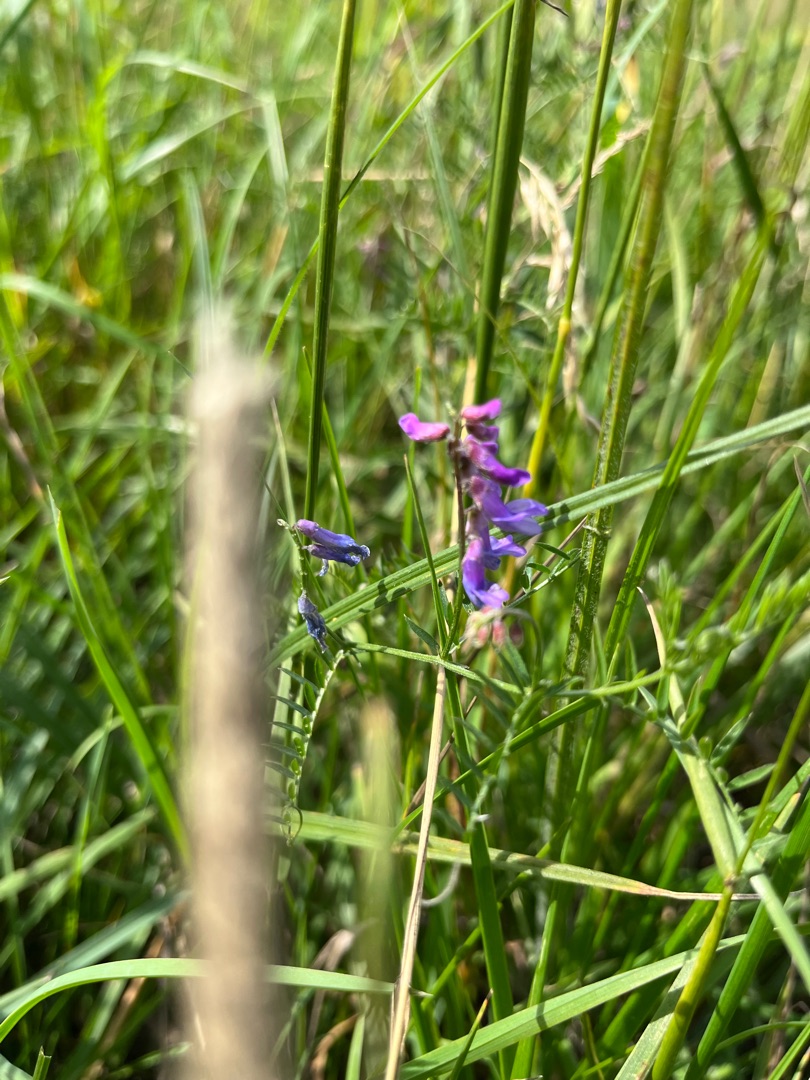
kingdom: Plantae
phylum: Tracheophyta
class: Magnoliopsida
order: Fabales
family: Fabaceae
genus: Vicia
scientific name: Vicia cracca
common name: Muse-vikke
